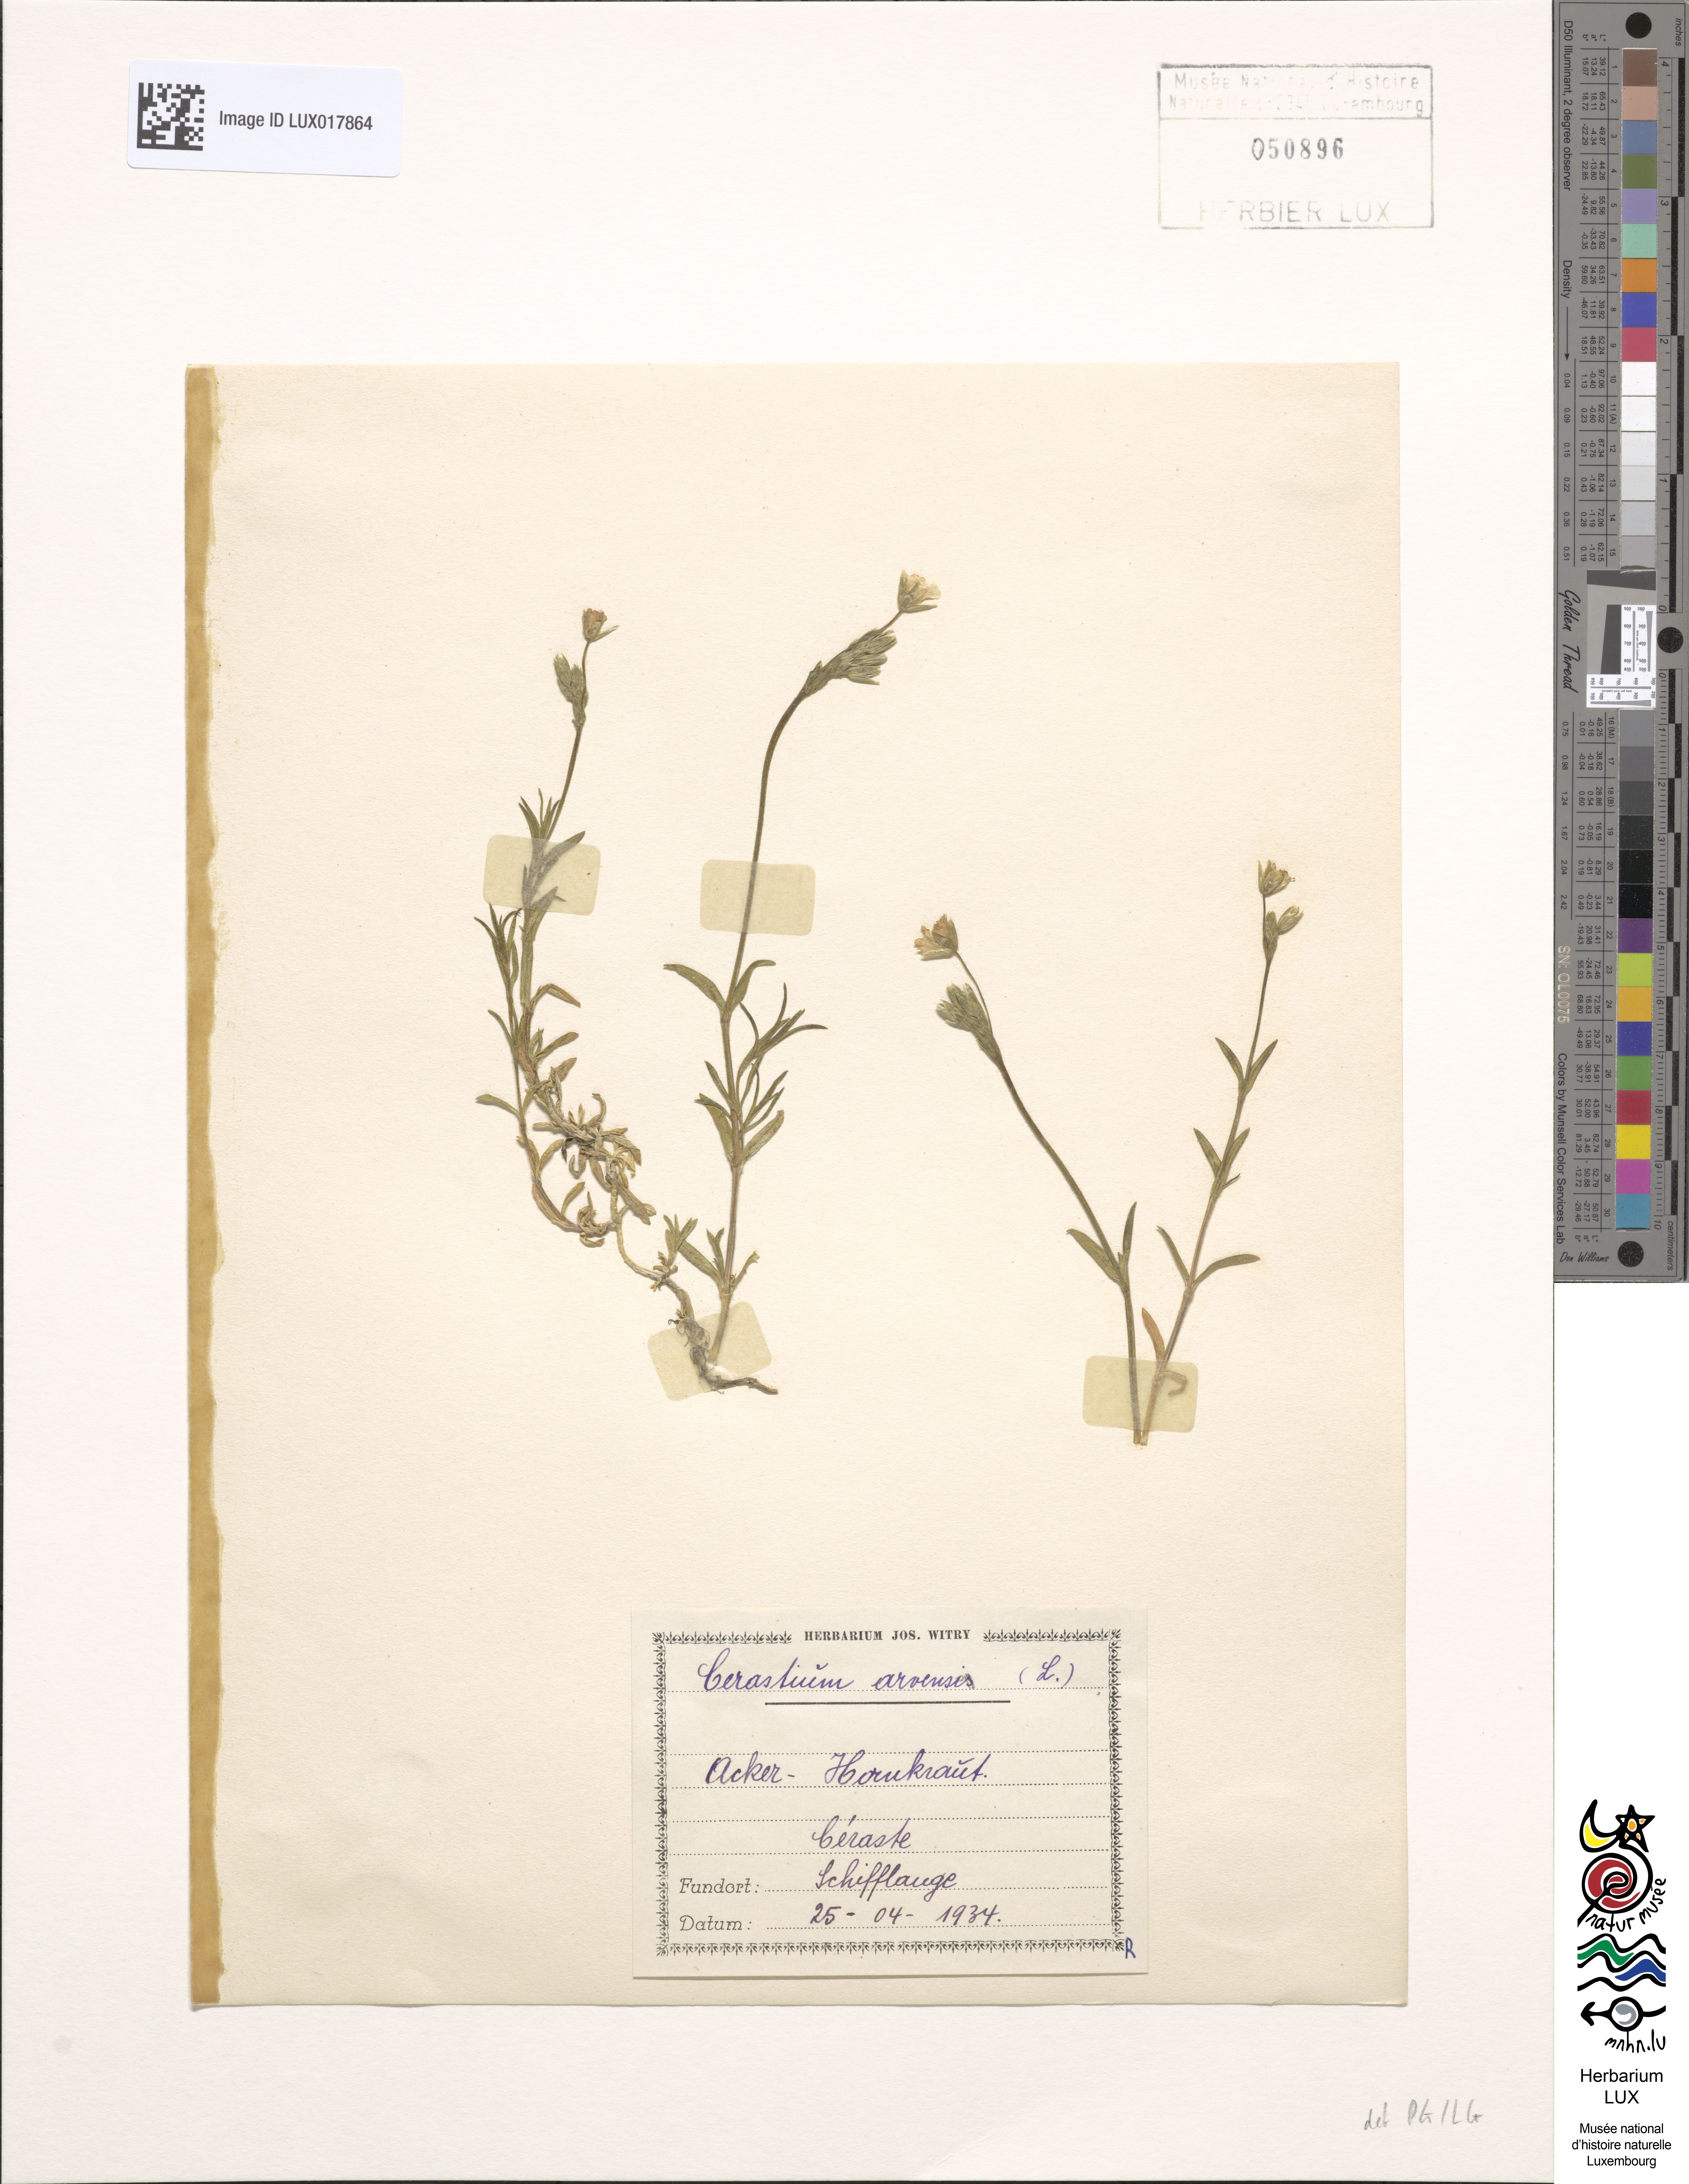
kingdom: Plantae
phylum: Tracheophyta
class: Magnoliopsida
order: Caryophyllales
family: Caryophyllaceae
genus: Cerastium
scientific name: Cerastium arvense
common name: Field mouse-ear
